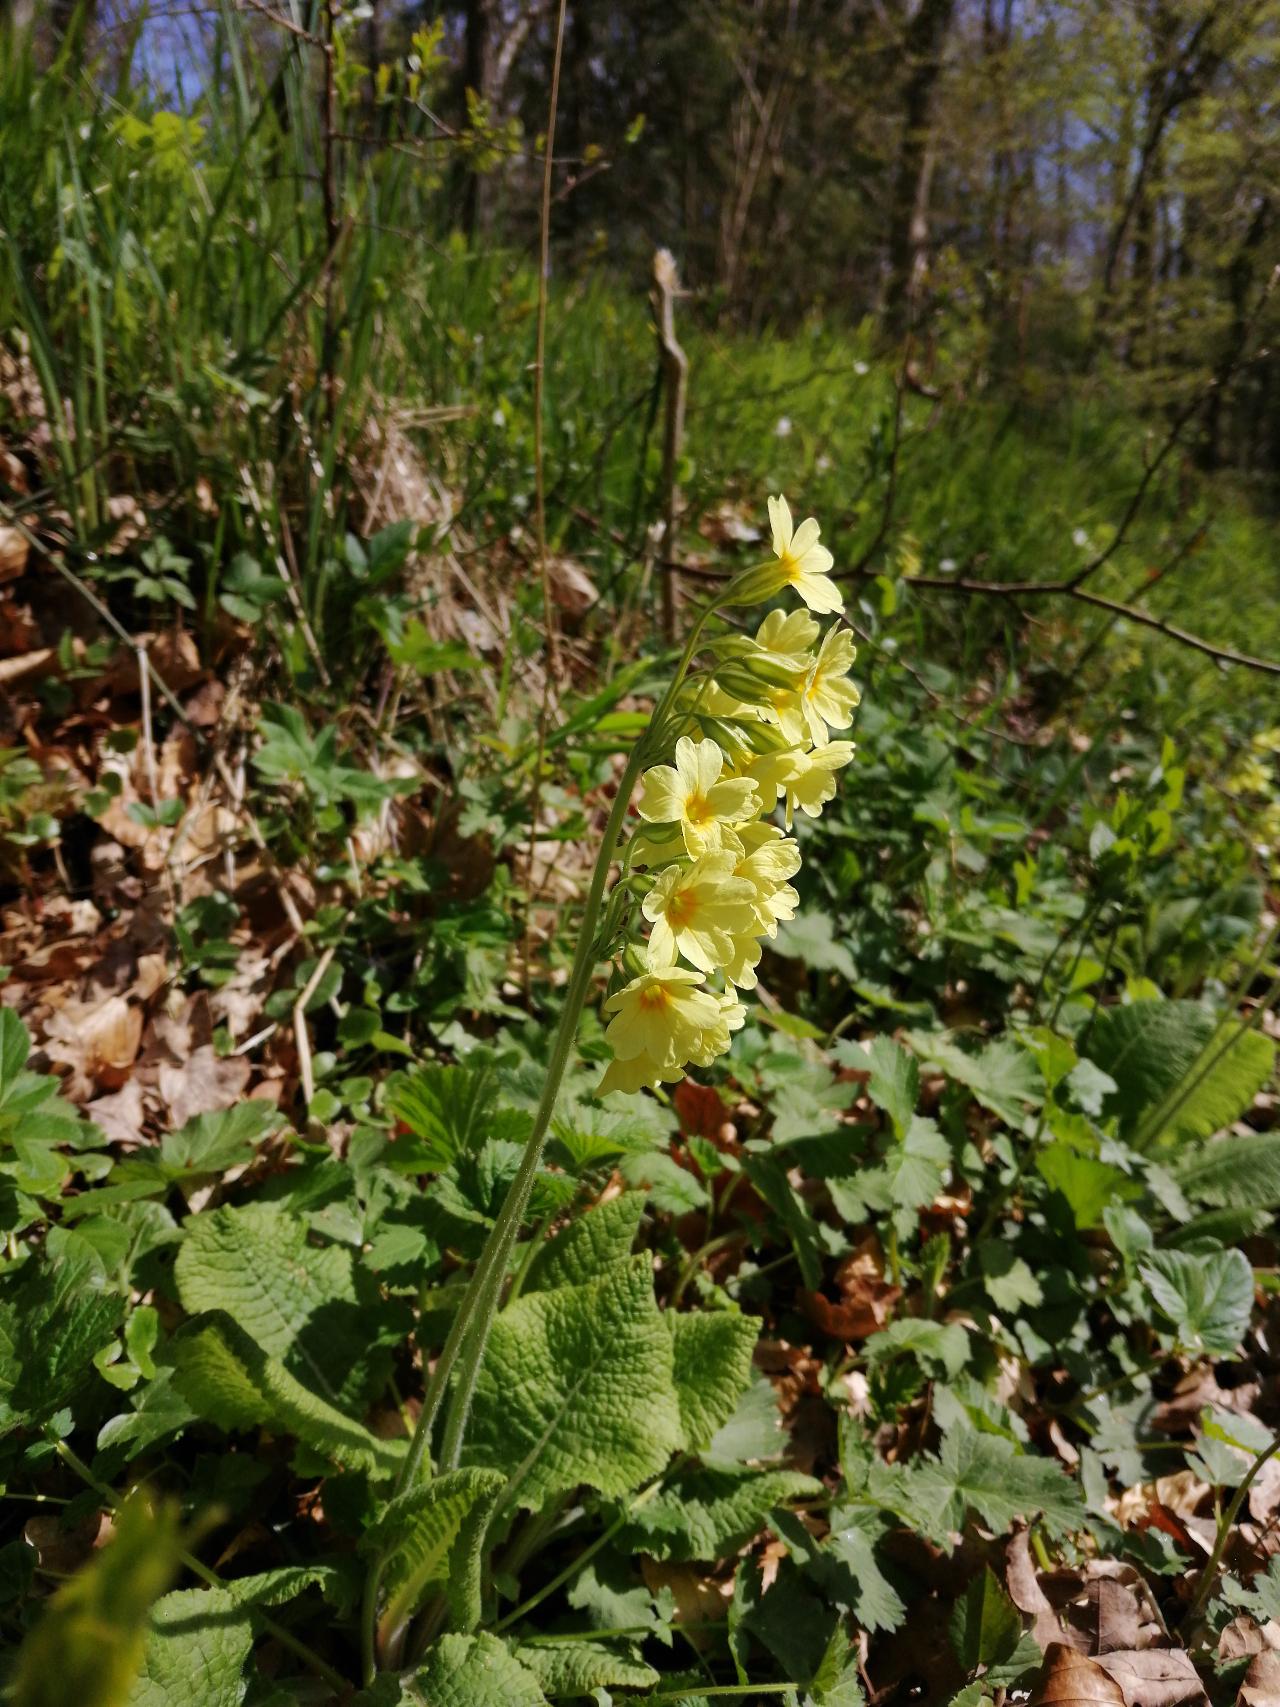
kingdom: Plantae
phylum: Tracheophyta
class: Magnoliopsida
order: Ericales
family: Primulaceae
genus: Primula
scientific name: Primula elatior
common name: Fladkravet kodriver
